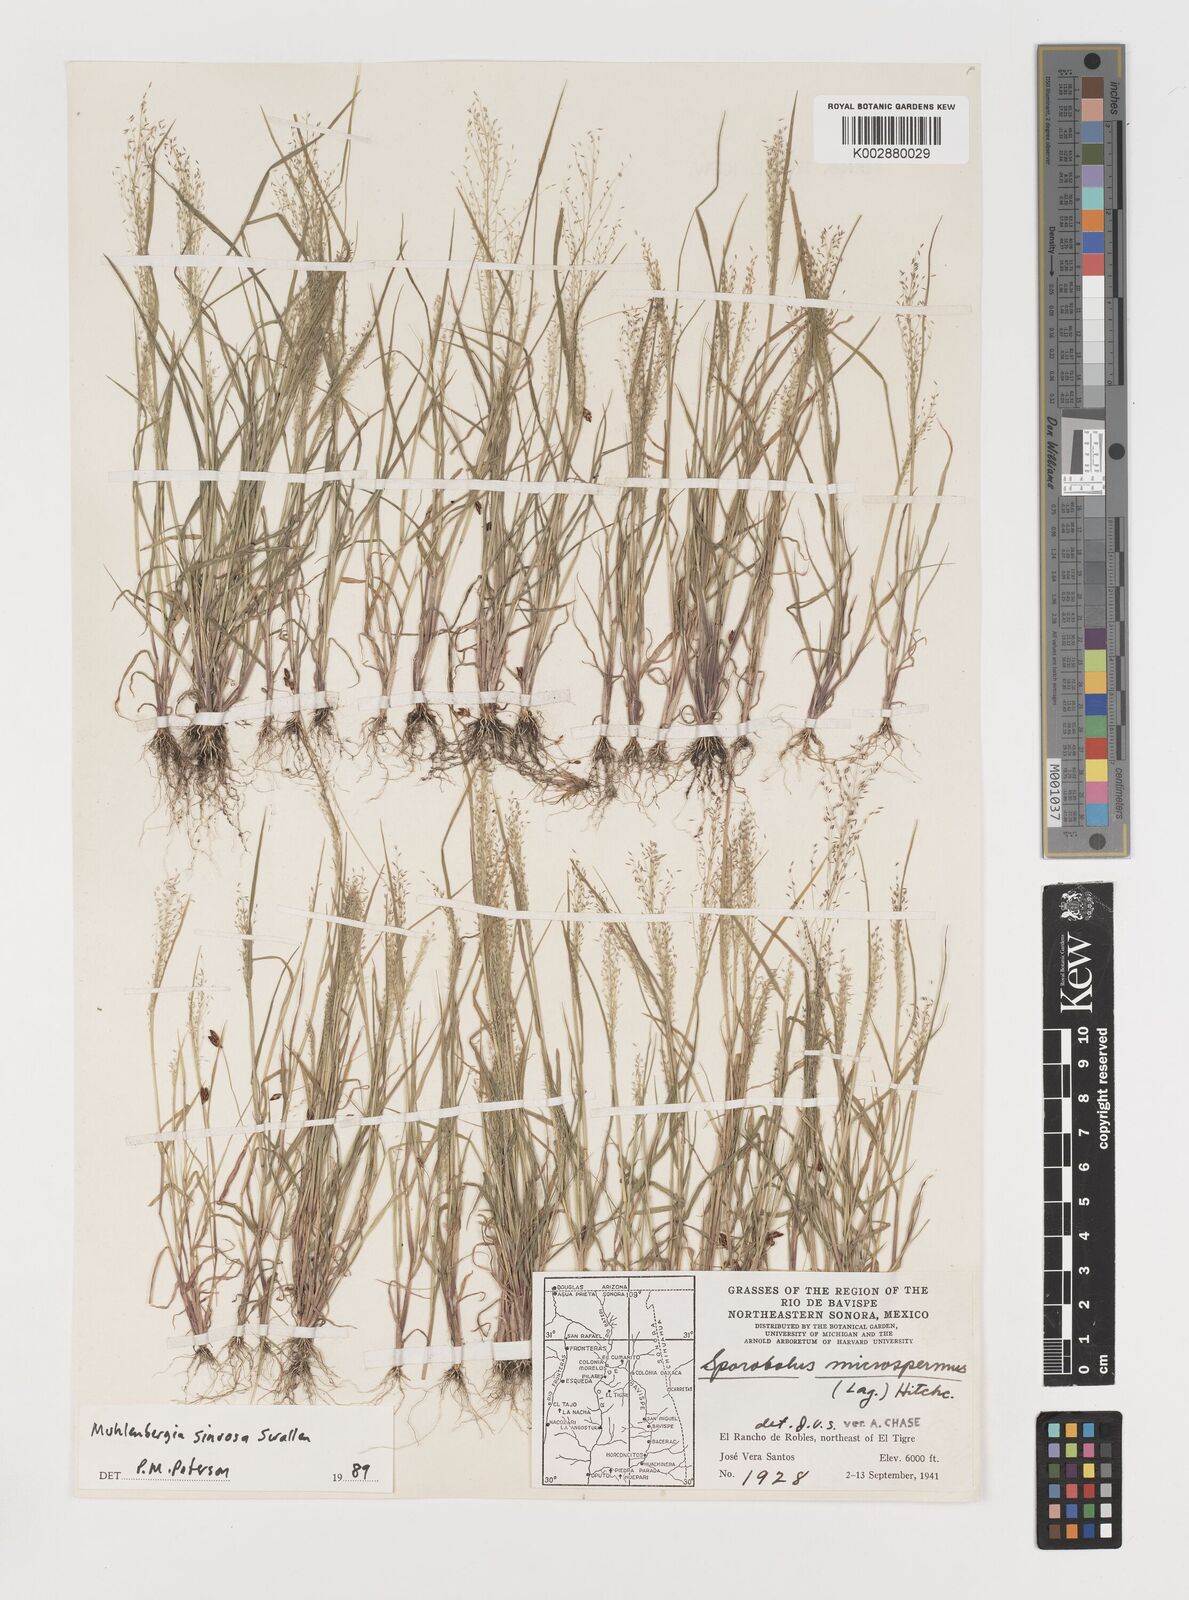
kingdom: Plantae
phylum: Tracheophyta
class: Liliopsida
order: Poales
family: Poaceae
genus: Muhlenbergia
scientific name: Muhlenbergia sinuosa
